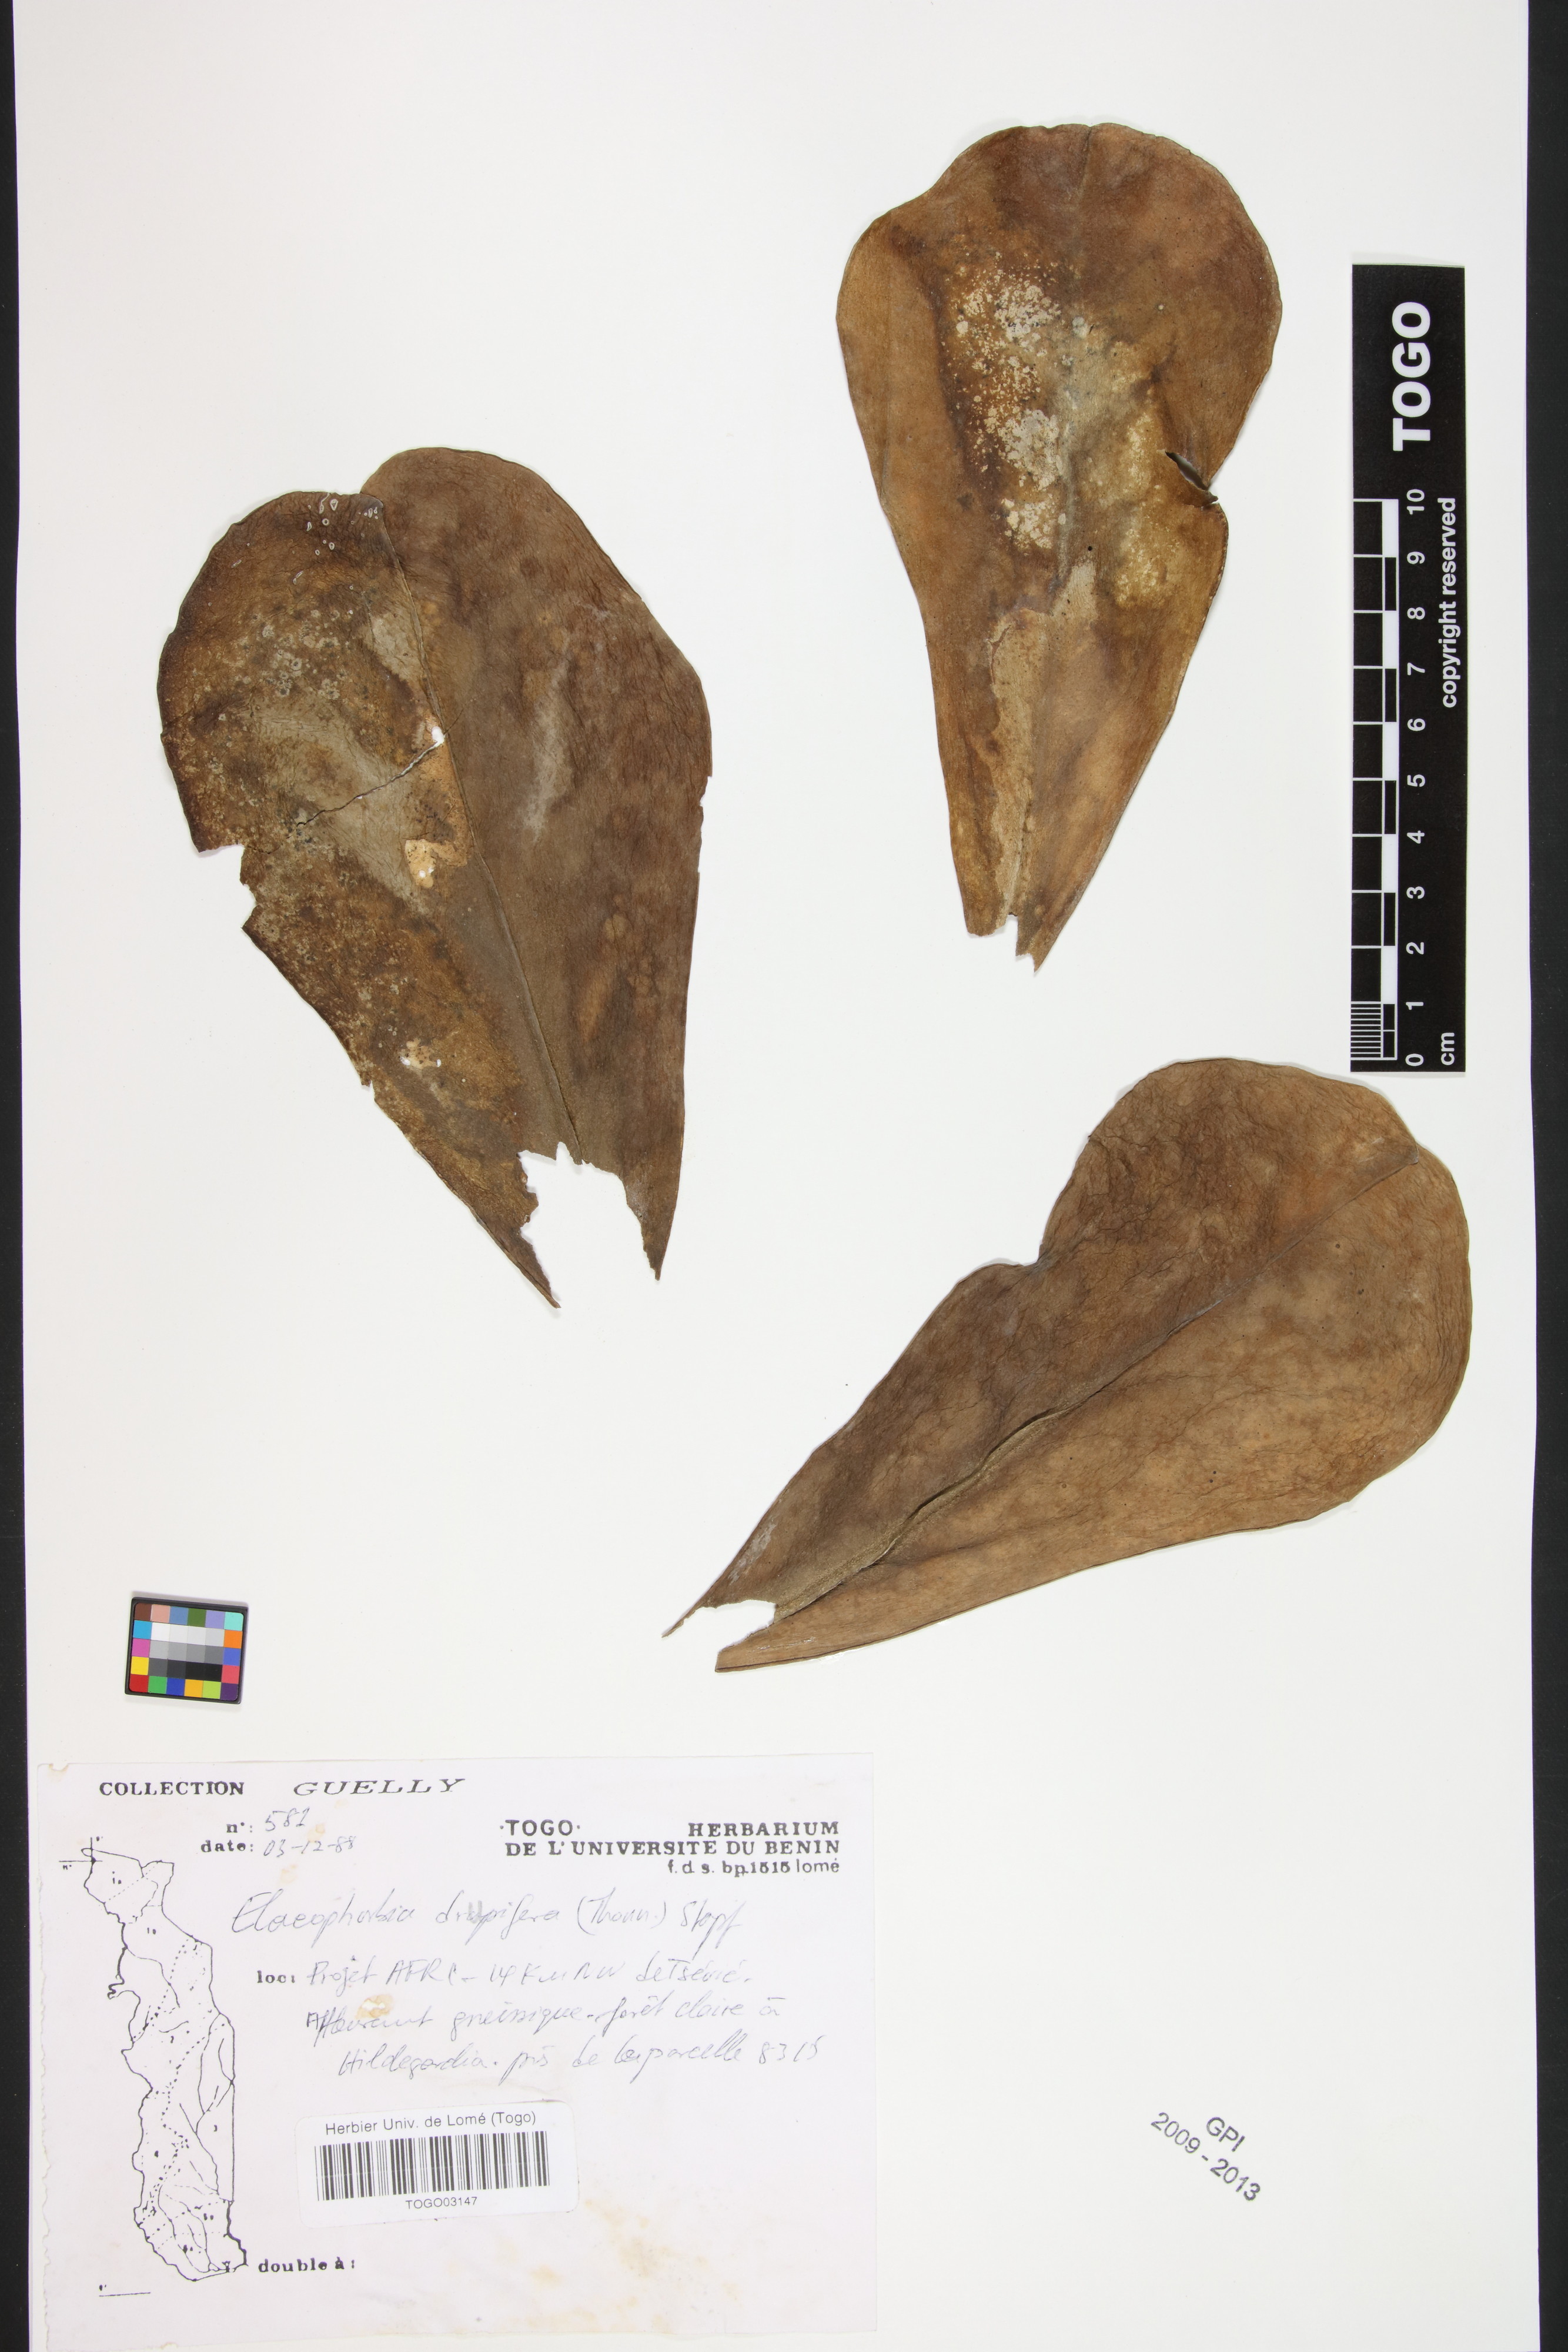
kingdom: Plantae
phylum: Tracheophyta
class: Magnoliopsida
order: Malpighiales
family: Euphorbiaceae
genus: Euphorbia
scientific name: Euphorbia
